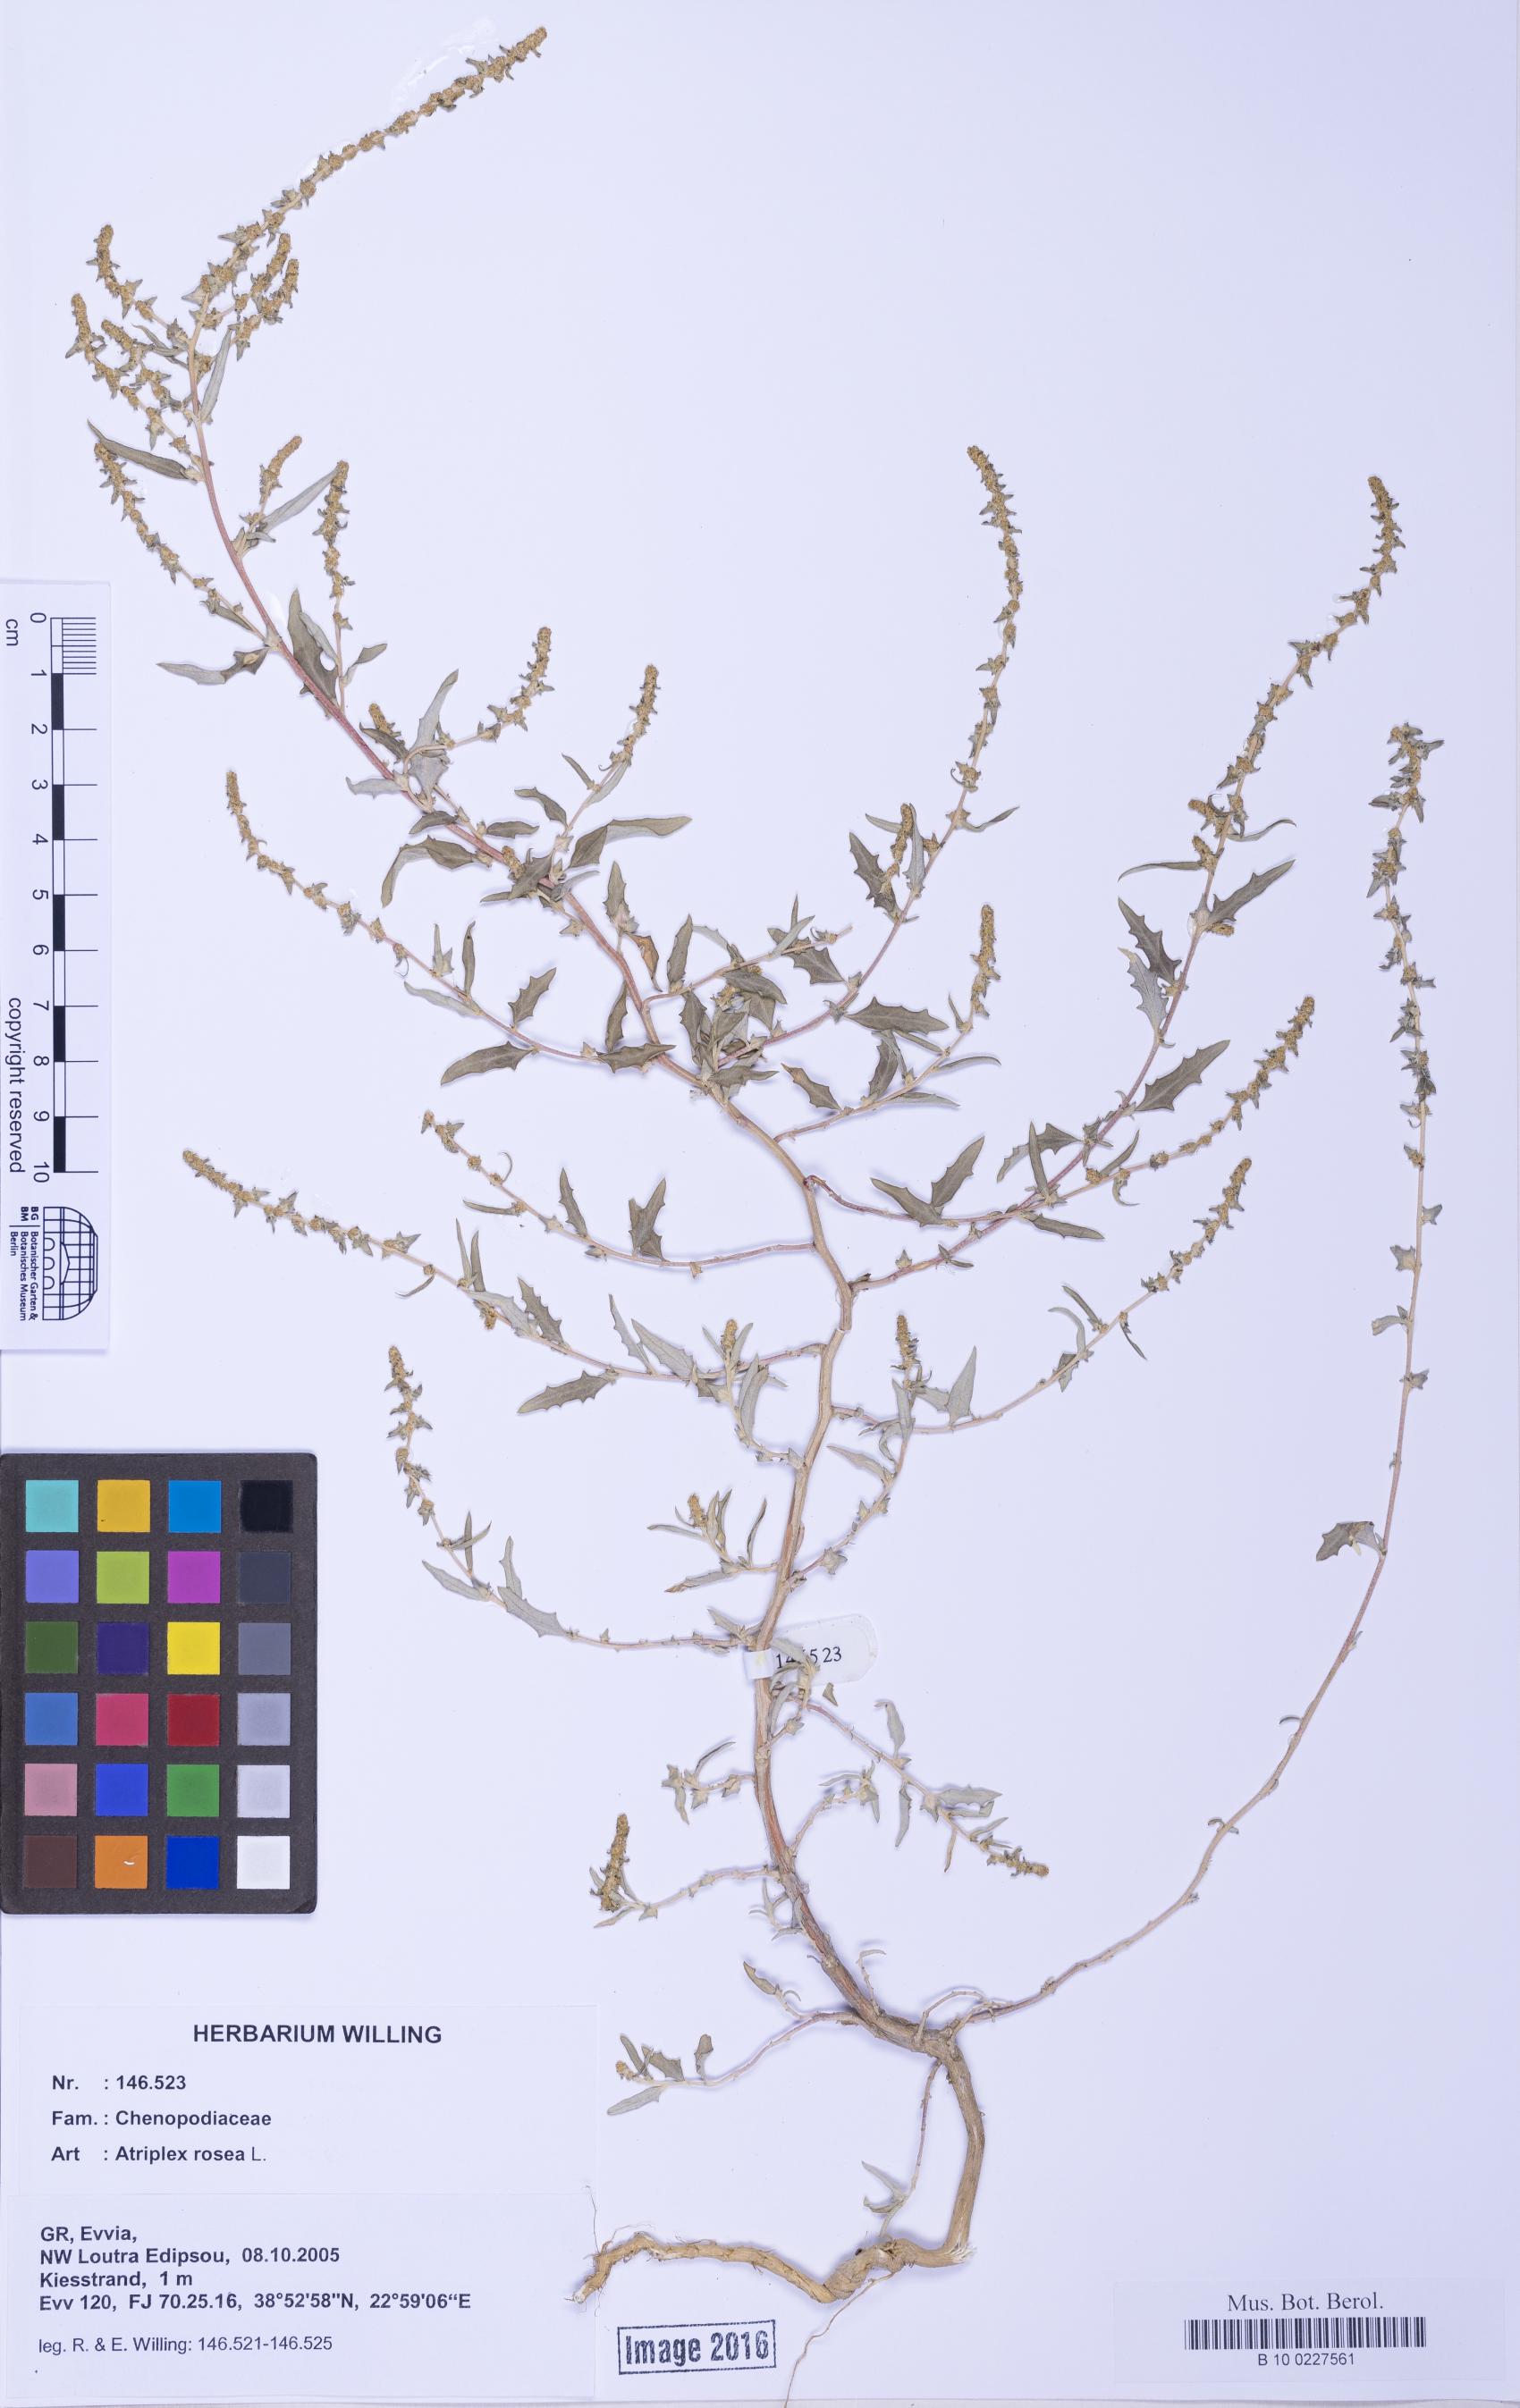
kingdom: Plantae
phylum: Tracheophyta
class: Magnoliopsida
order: Caryophyllales
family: Amaranthaceae
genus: Atriplex
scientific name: Atriplex tatarica
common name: Tatarian orache
